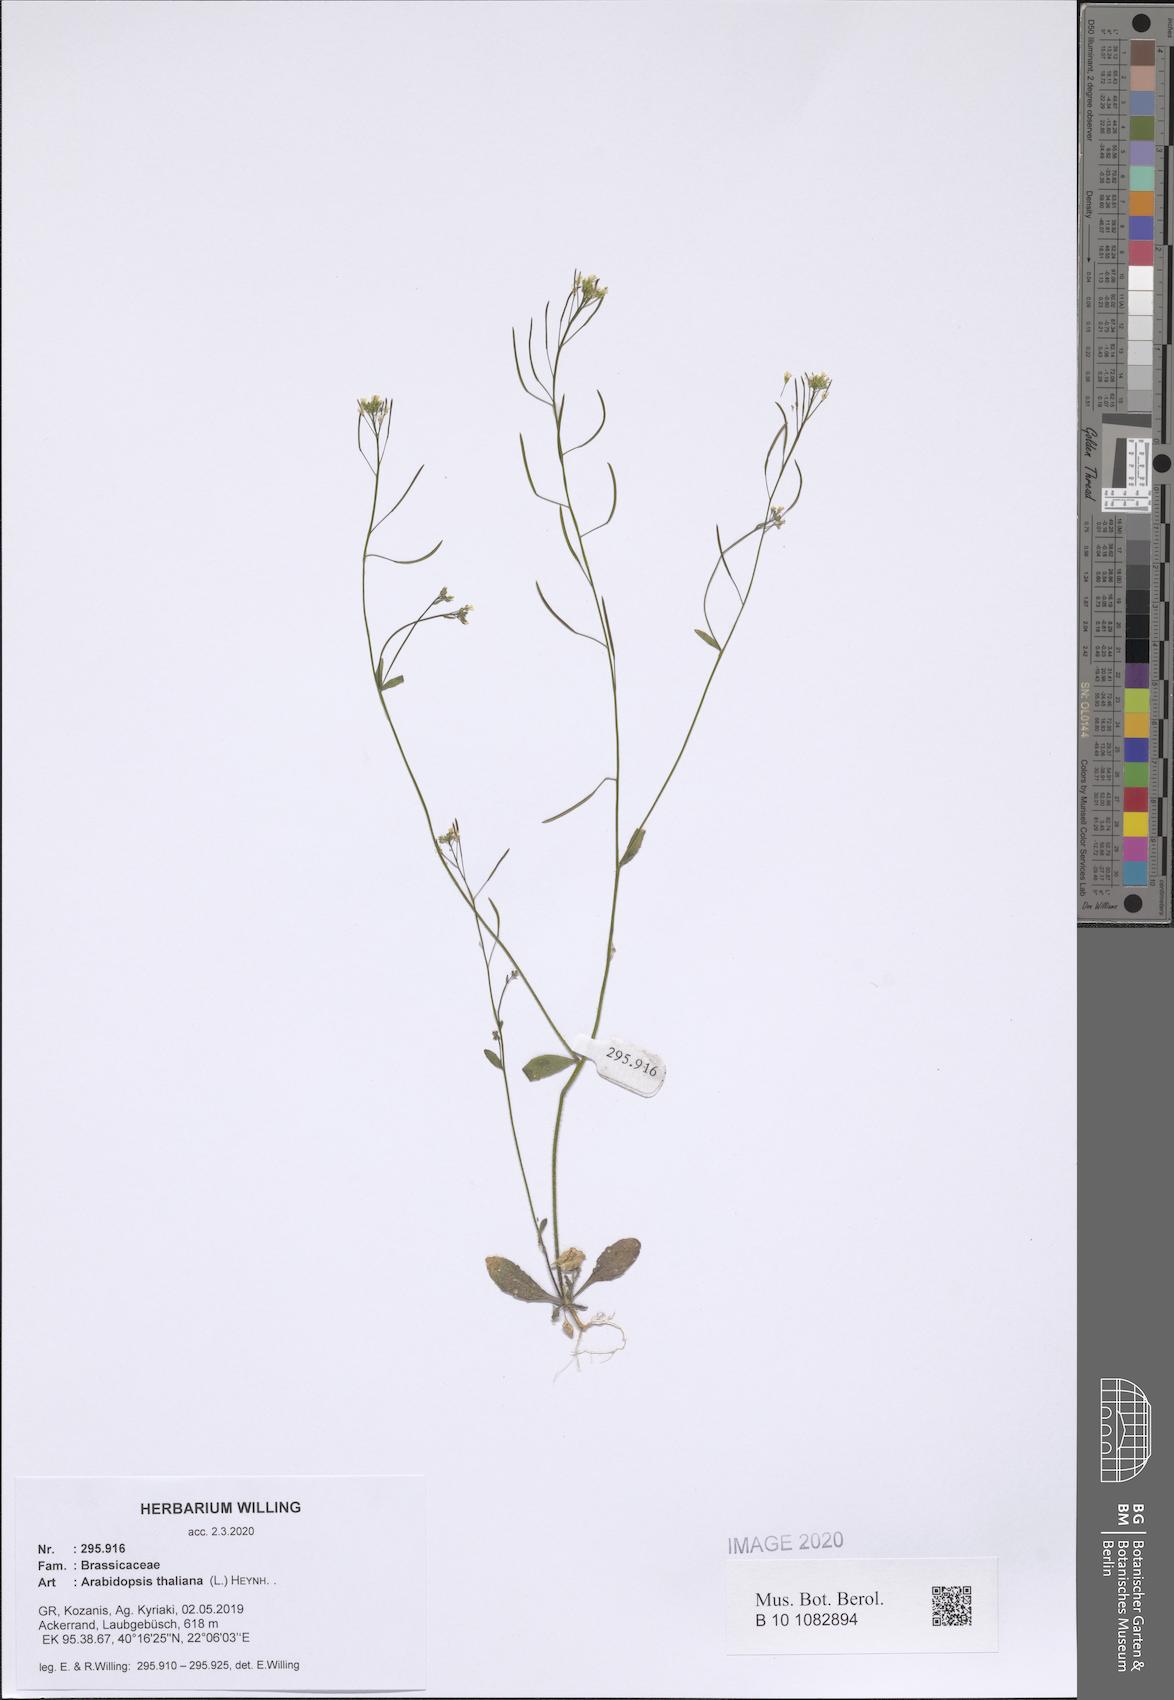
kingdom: Plantae
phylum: Tracheophyta
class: Magnoliopsida
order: Brassicales
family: Brassicaceae
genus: Arabidopsis
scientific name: Arabidopsis thaliana
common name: Thale cress
